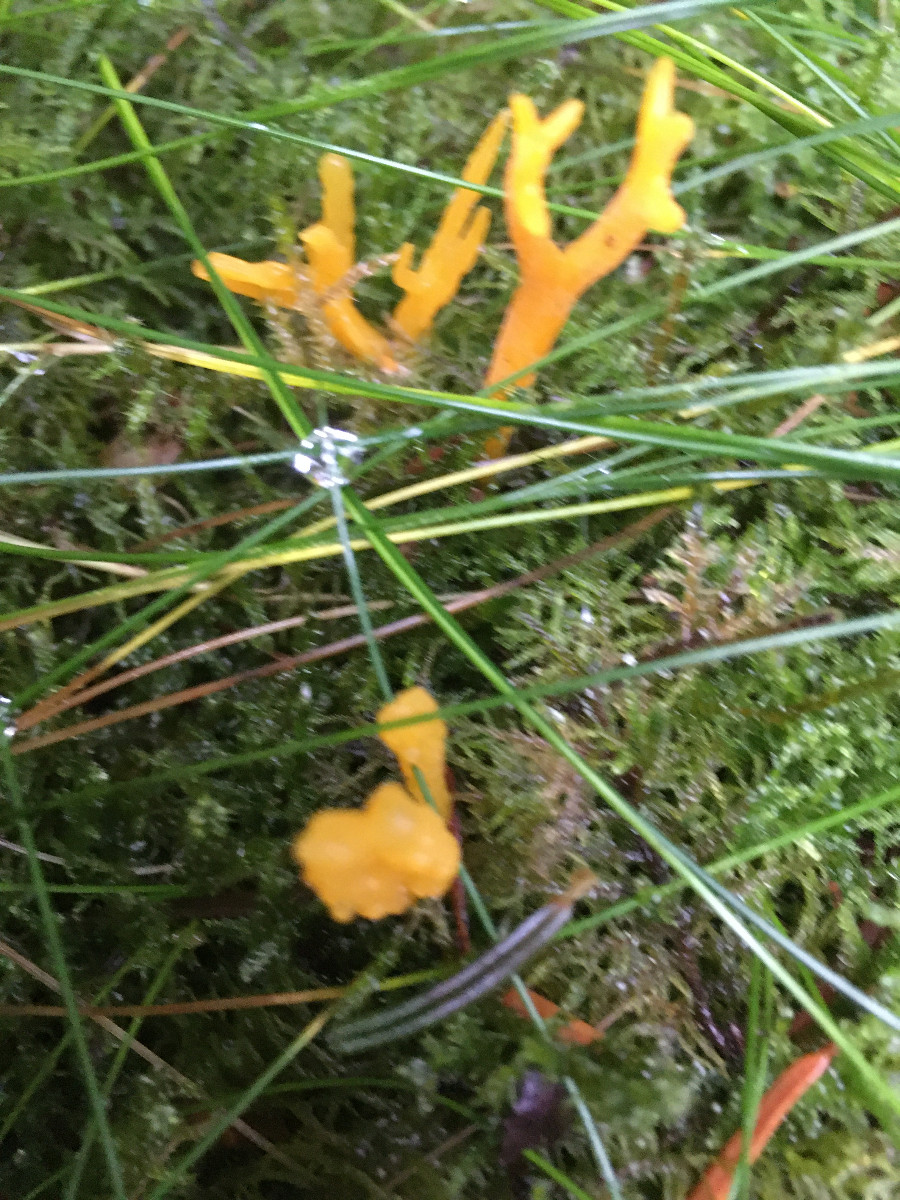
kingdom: Fungi
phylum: Basidiomycota
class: Dacrymycetes
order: Dacrymycetales
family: Dacrymycetaceae
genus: Calocera
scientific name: Calocera viscosa
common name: almindelig guldgaffel
